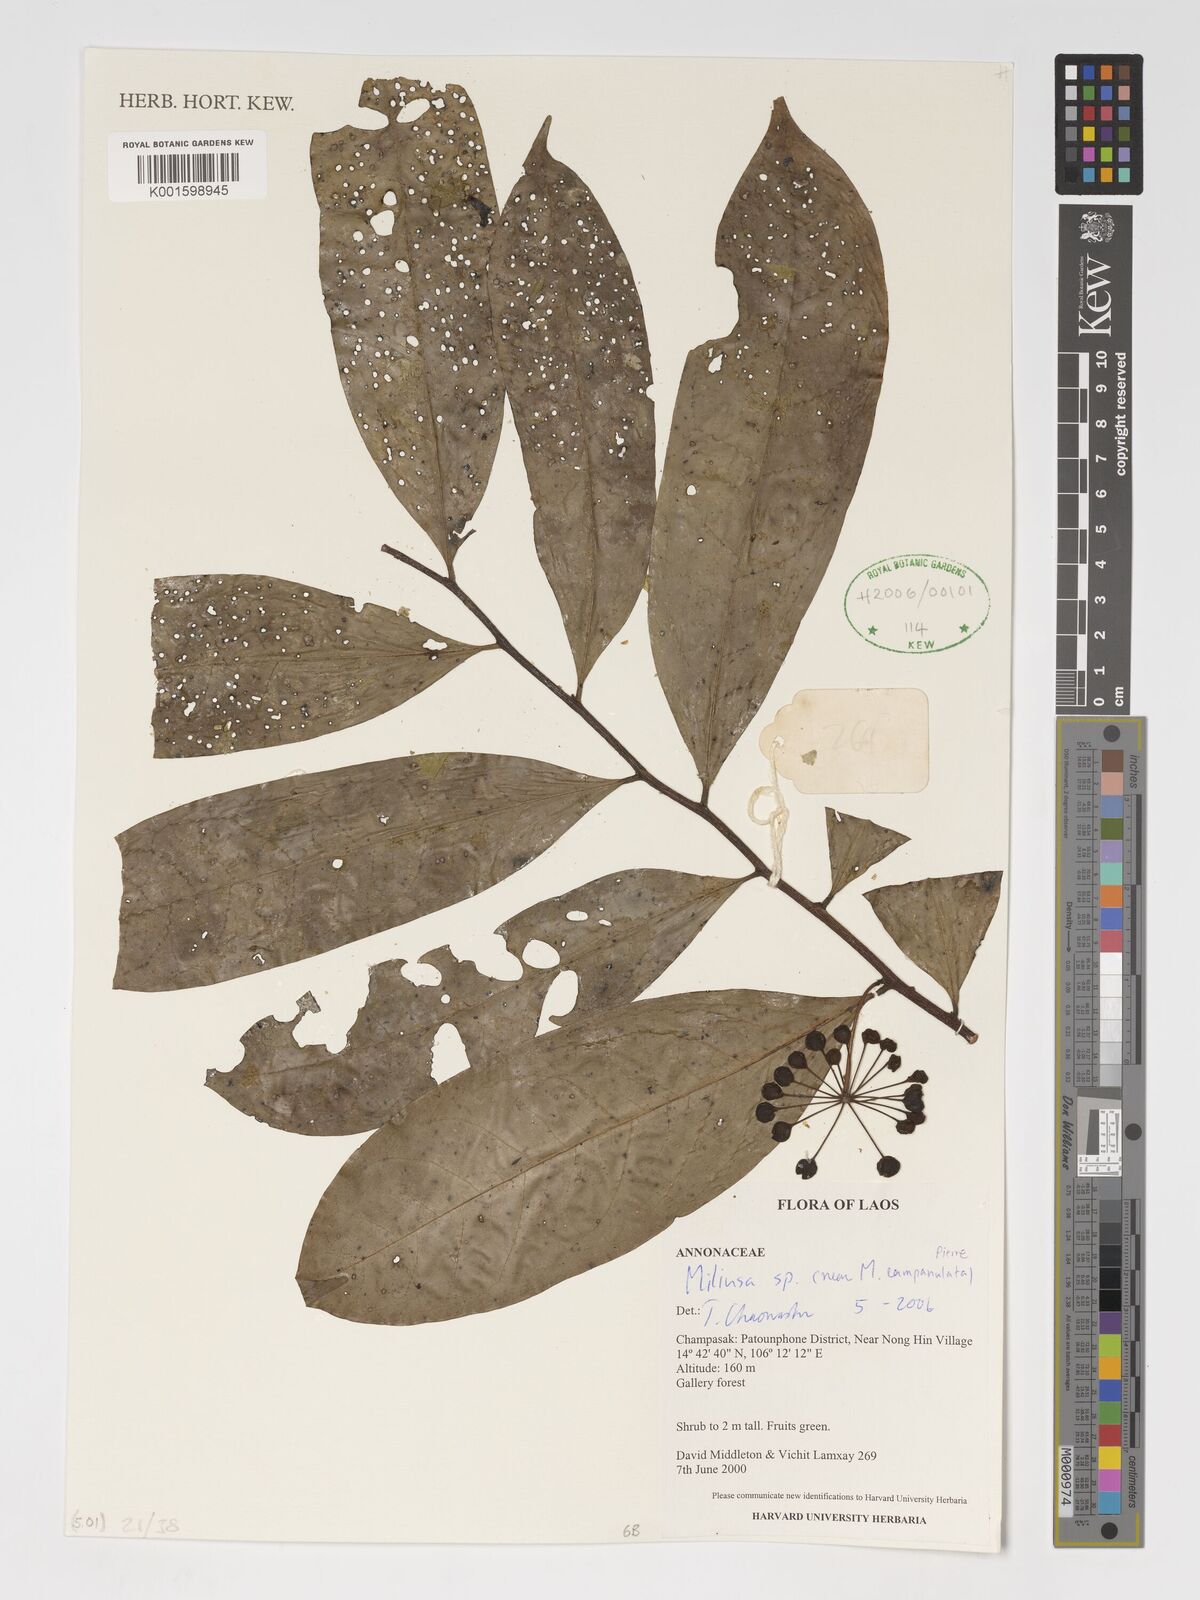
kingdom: Plantae
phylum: Tracheophyta
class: Magnoliopsida
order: Magnoliales
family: Annonaceae
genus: Miliusa
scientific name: Miliusa
